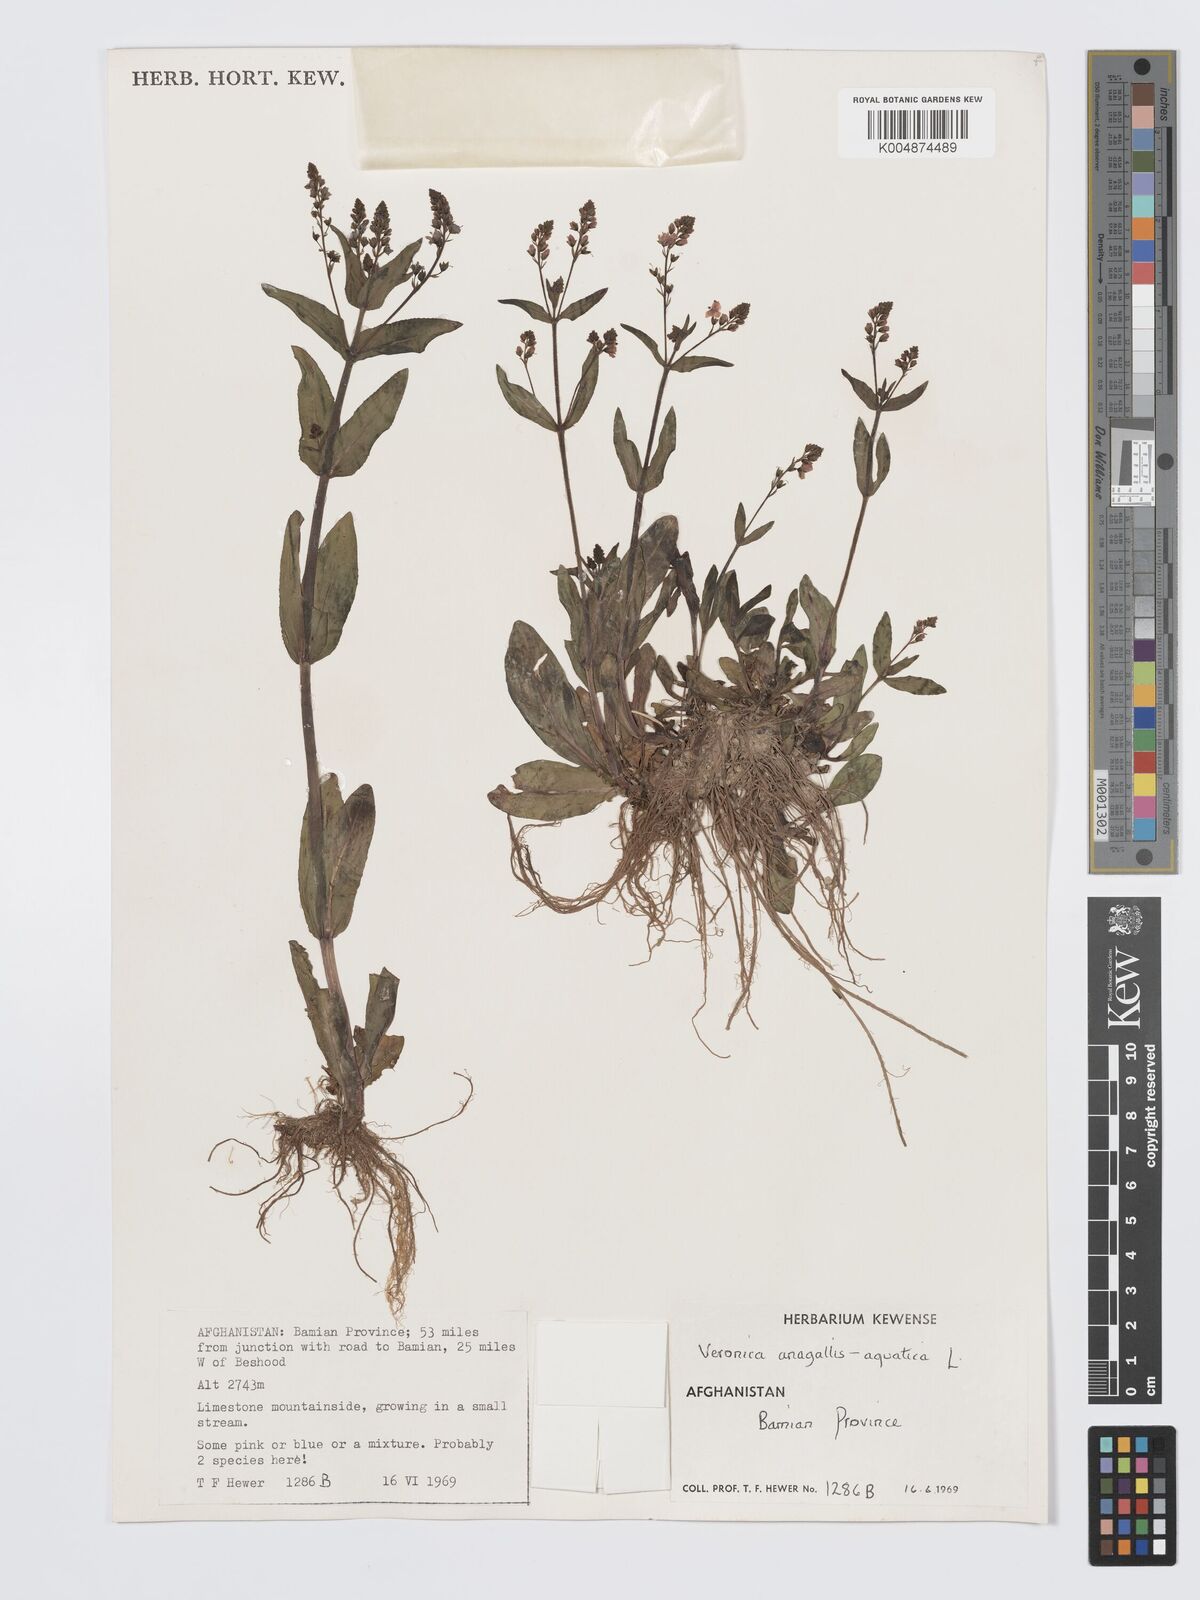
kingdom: Plantae
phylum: Tracheophyta
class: Magnoliopsida
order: Lamiales
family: Plantaginaceae
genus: Veronica
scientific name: Veronica oxycarpa
